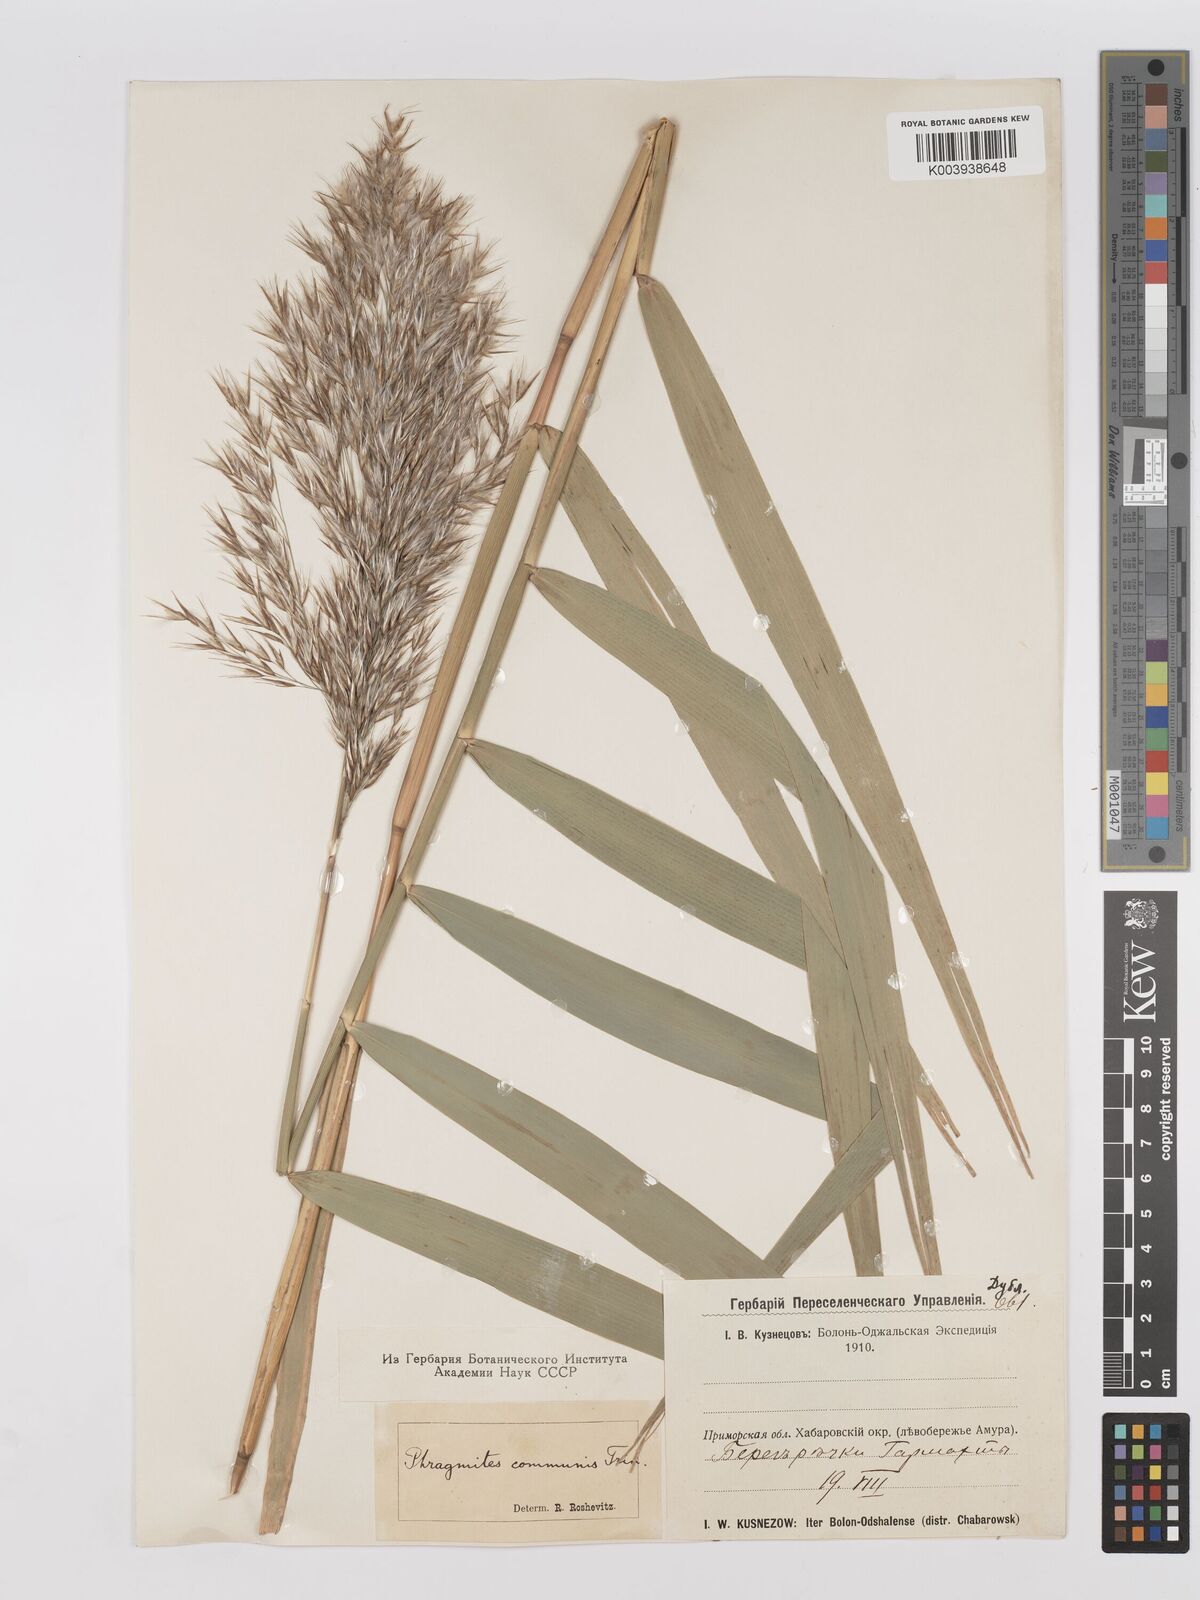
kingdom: Plantae
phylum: Tracheophyta
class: Liliopsida
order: Poales
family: Poaceae
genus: Phragmites
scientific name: Phragmites australis
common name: Common reed
